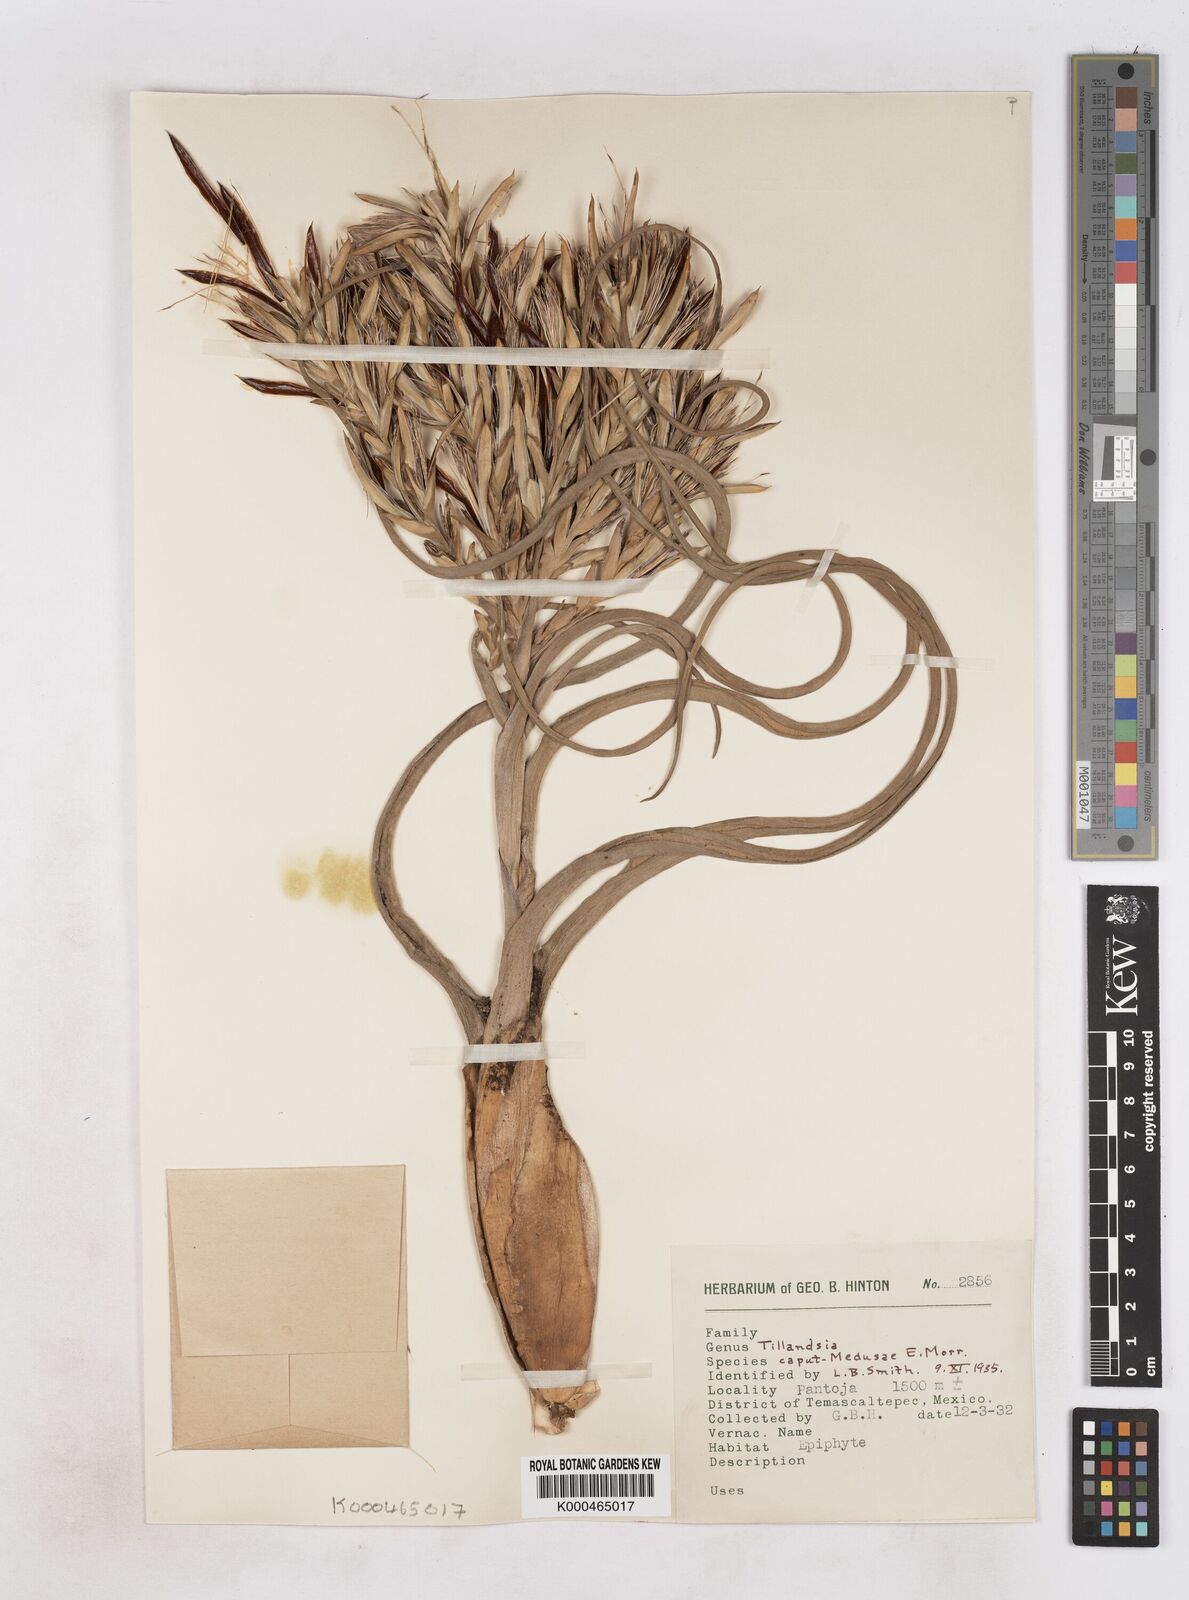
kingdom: Plantae
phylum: Tracheophyta
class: Liliopsida
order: Poales
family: Bromeliaceae
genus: Tillandsia
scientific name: Tillandsia caput-medusae
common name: Octopus plant
